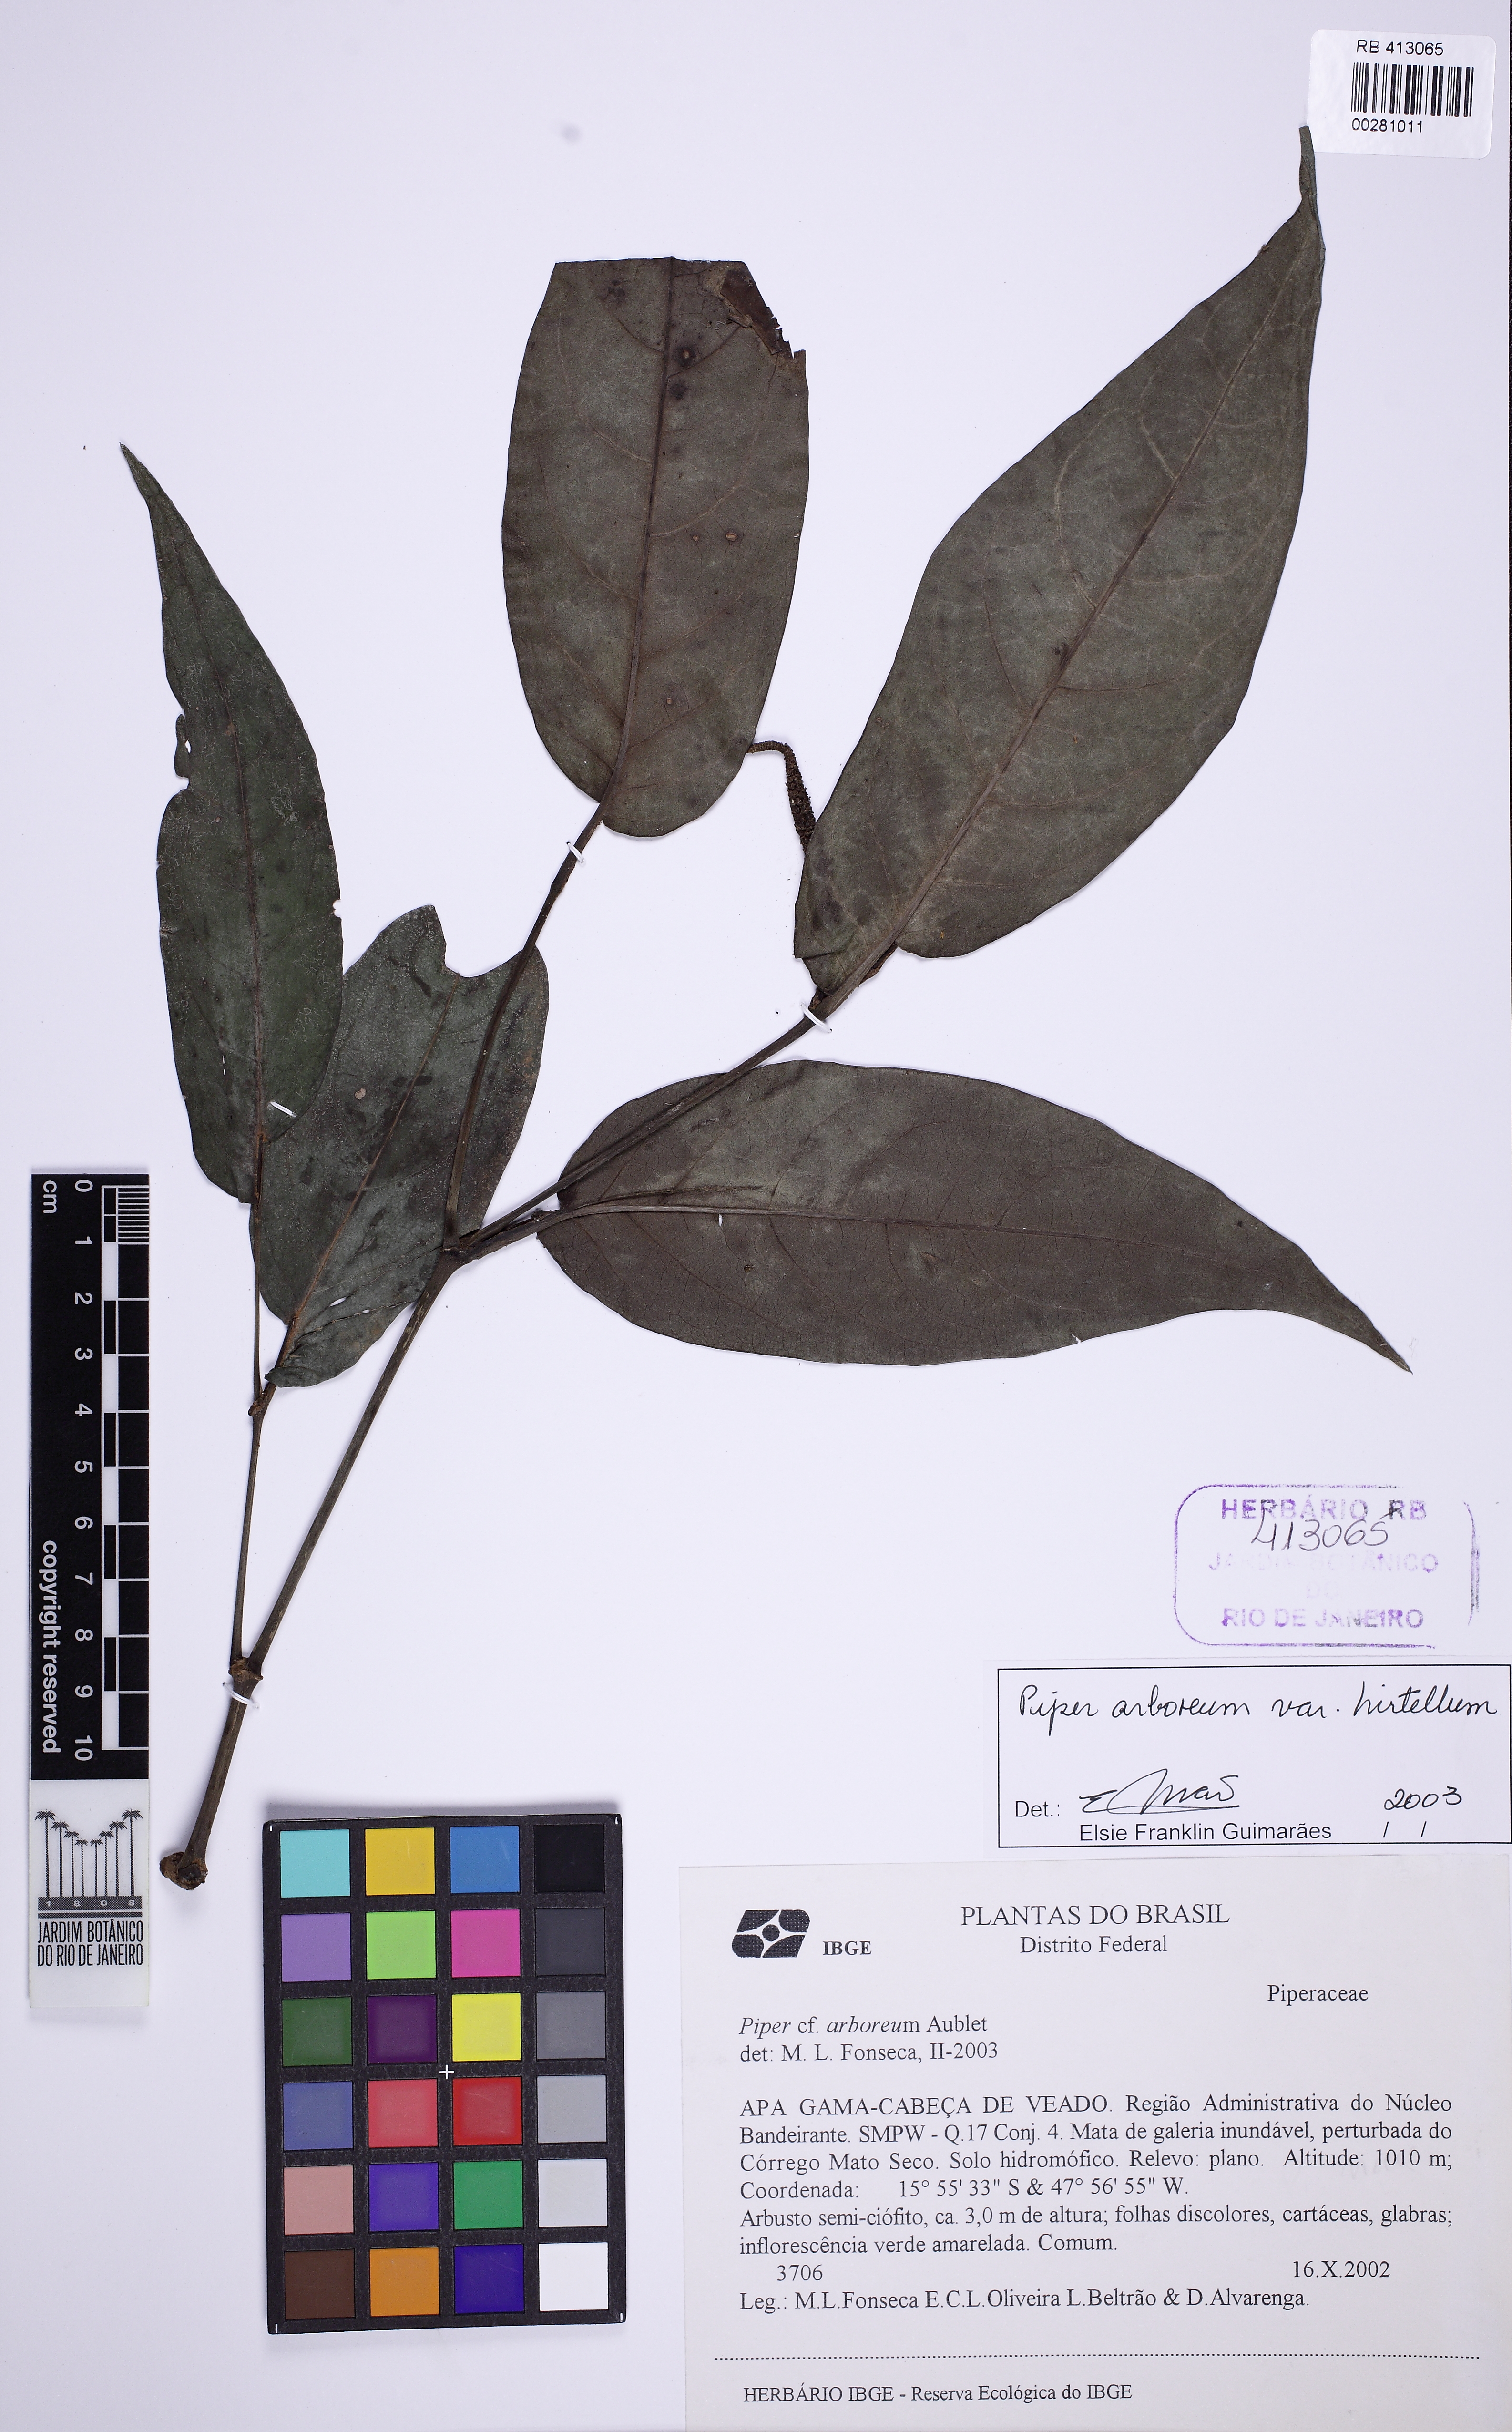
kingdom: Plantae
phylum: Tracheophyta
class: Magnoliopsida
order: Piperales
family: Piperaceae
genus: Piper
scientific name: Piper arboreum
